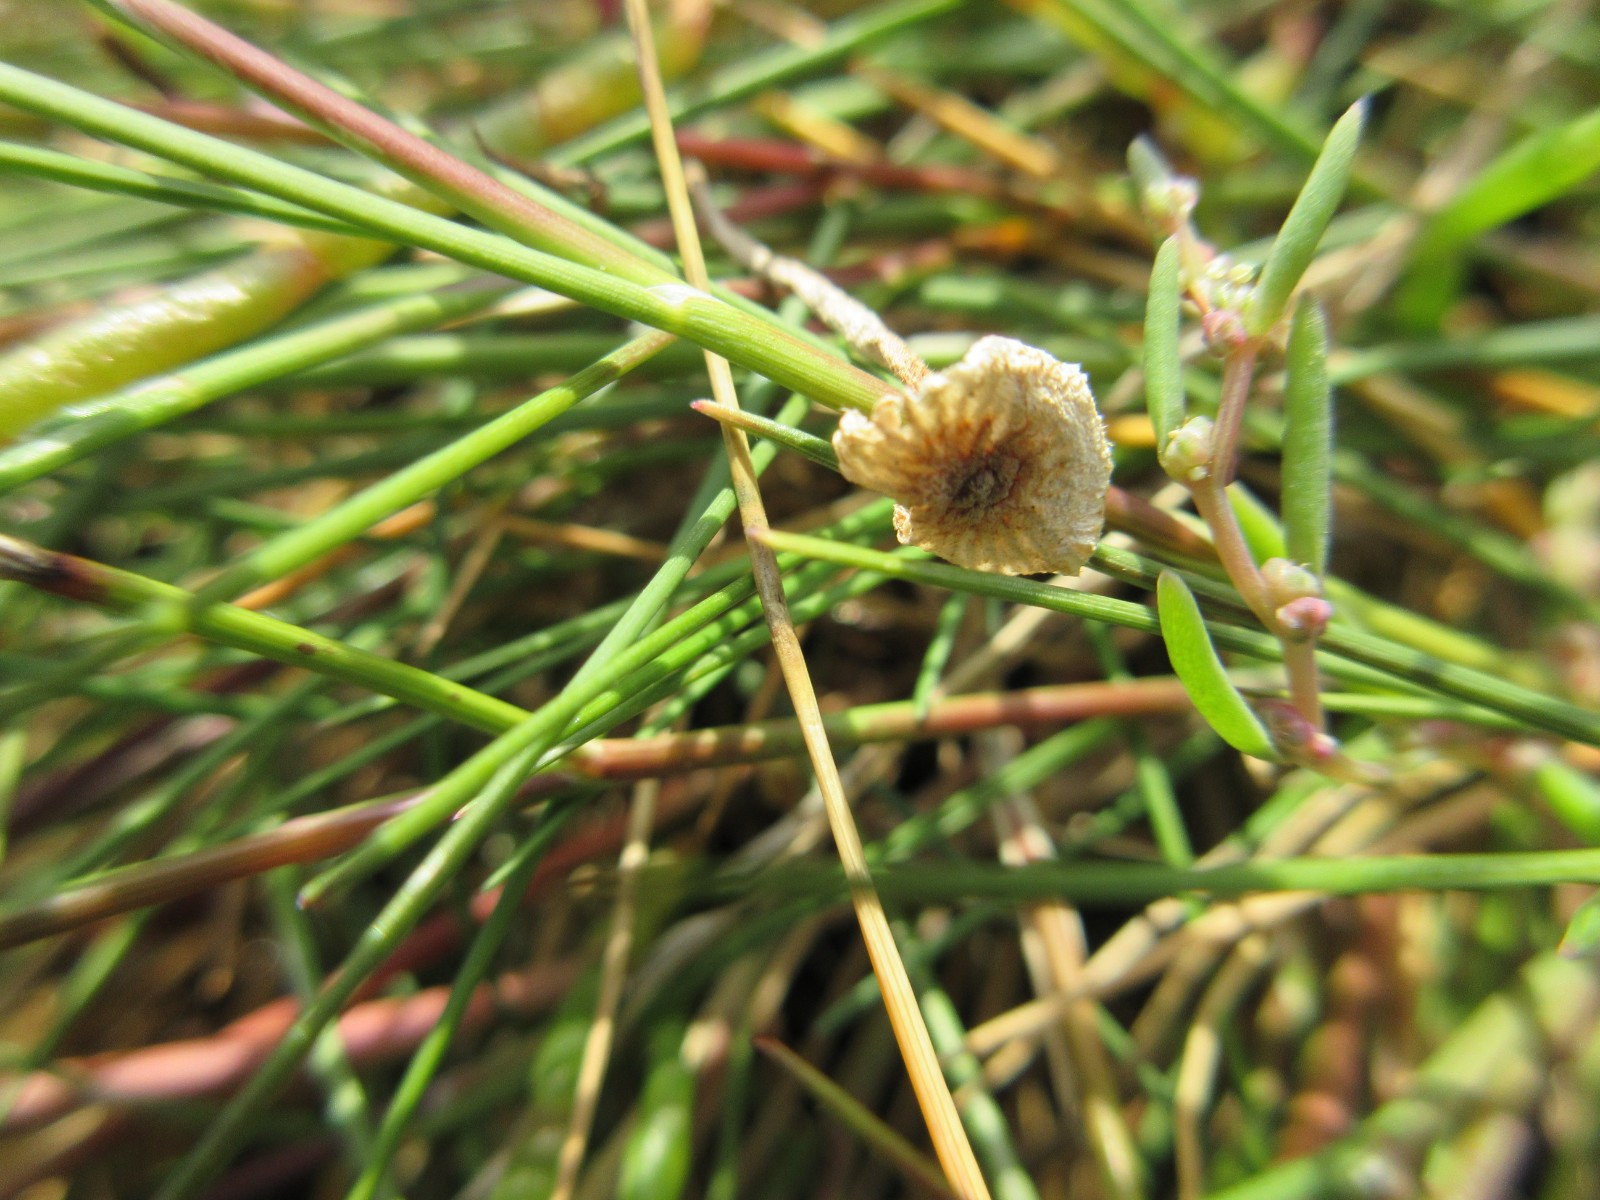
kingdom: Fungi
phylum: Basidiomycota
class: Agaricomycetes
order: Agaricales
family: Marasmiaceae
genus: Crinipellis
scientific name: Crinipellis scabella
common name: børstefod
